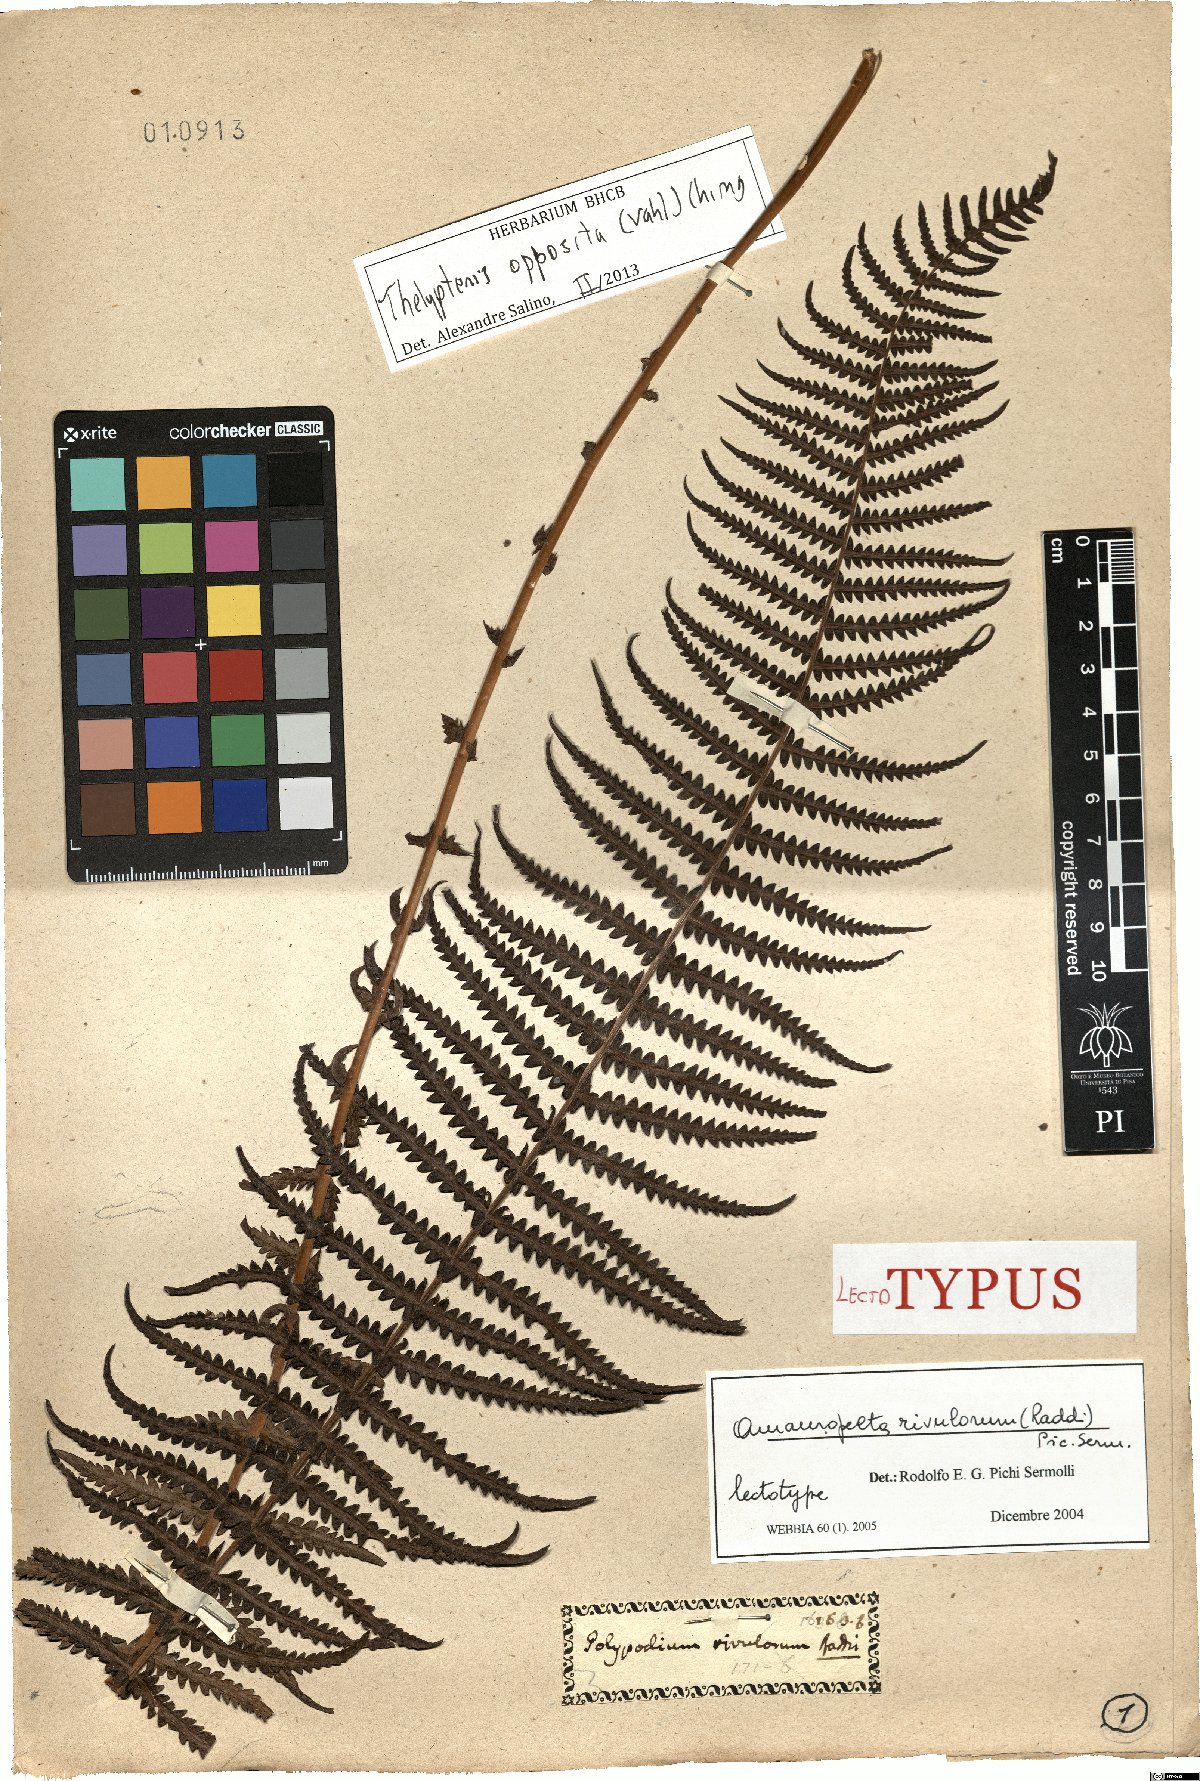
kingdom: Plantae
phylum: Tracheophyta
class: Polypodiopsida
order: Polypodiales
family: Thelypteridaceae
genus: Amauropelta
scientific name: Amauropelta opposita
